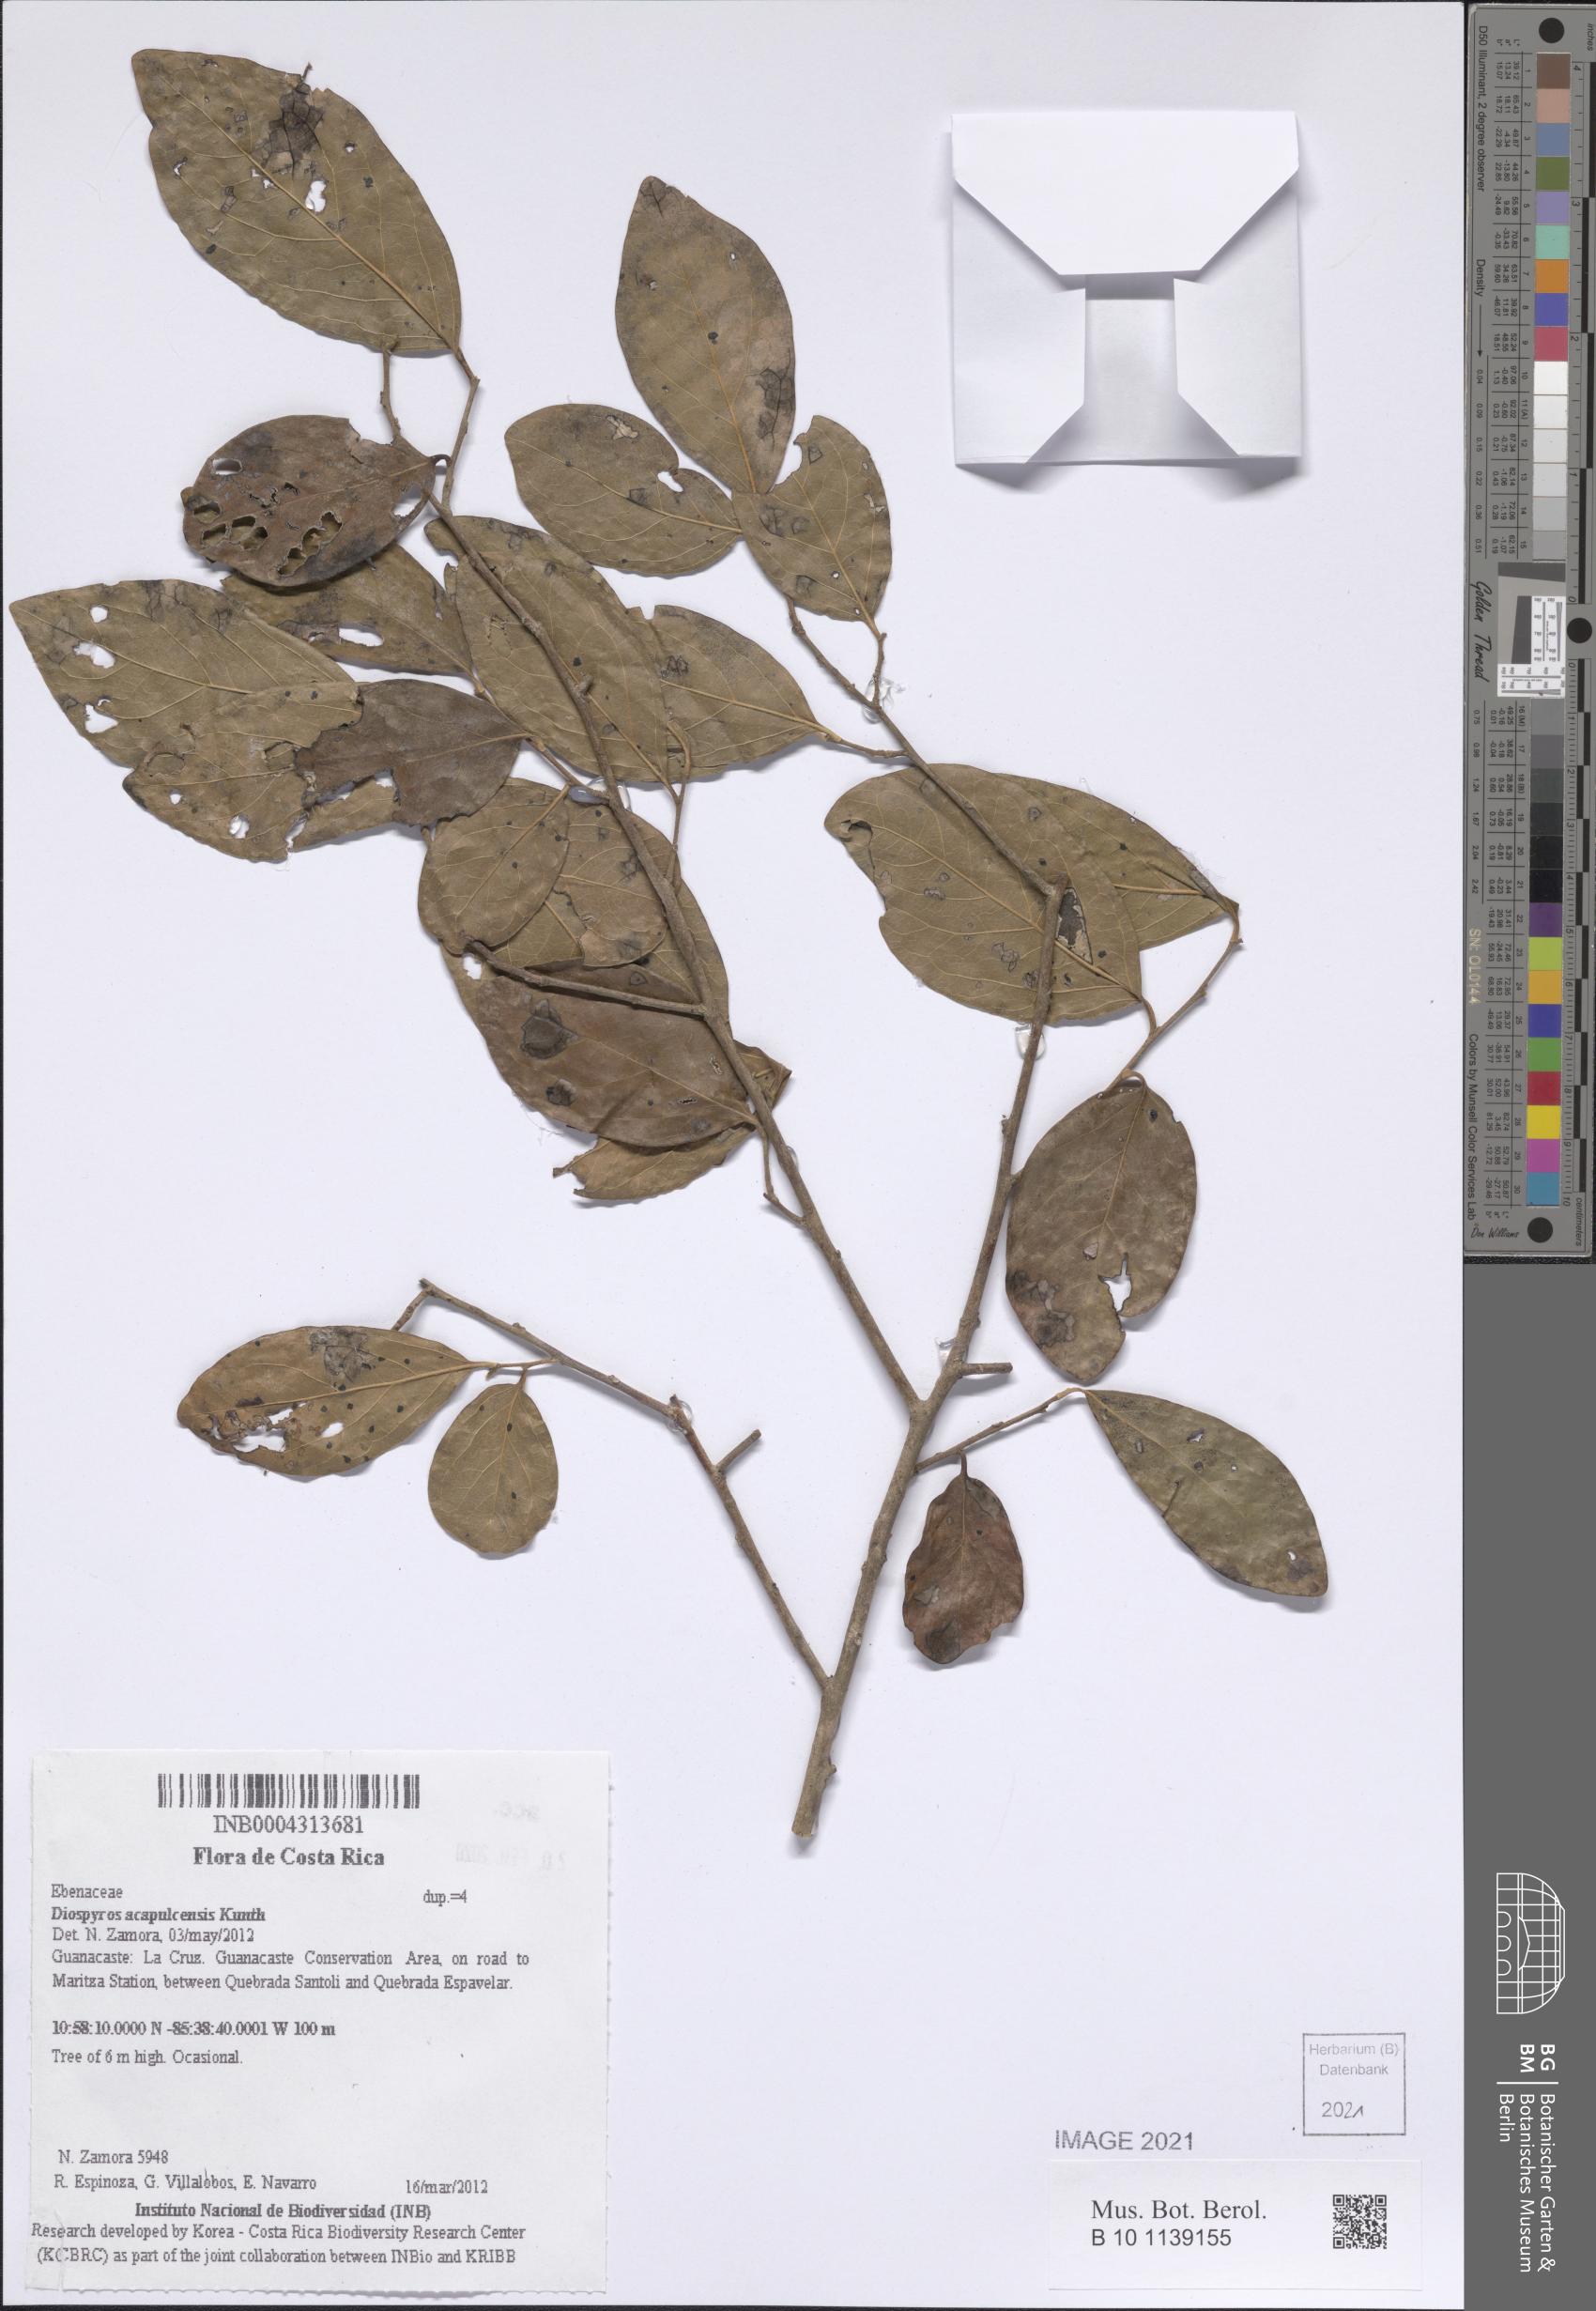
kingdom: Plantae
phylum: Tracheophyta
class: Magnoliopsida
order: Ericales
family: Ebenaceae
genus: Diospyros
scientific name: Diospyros acapulcensis
